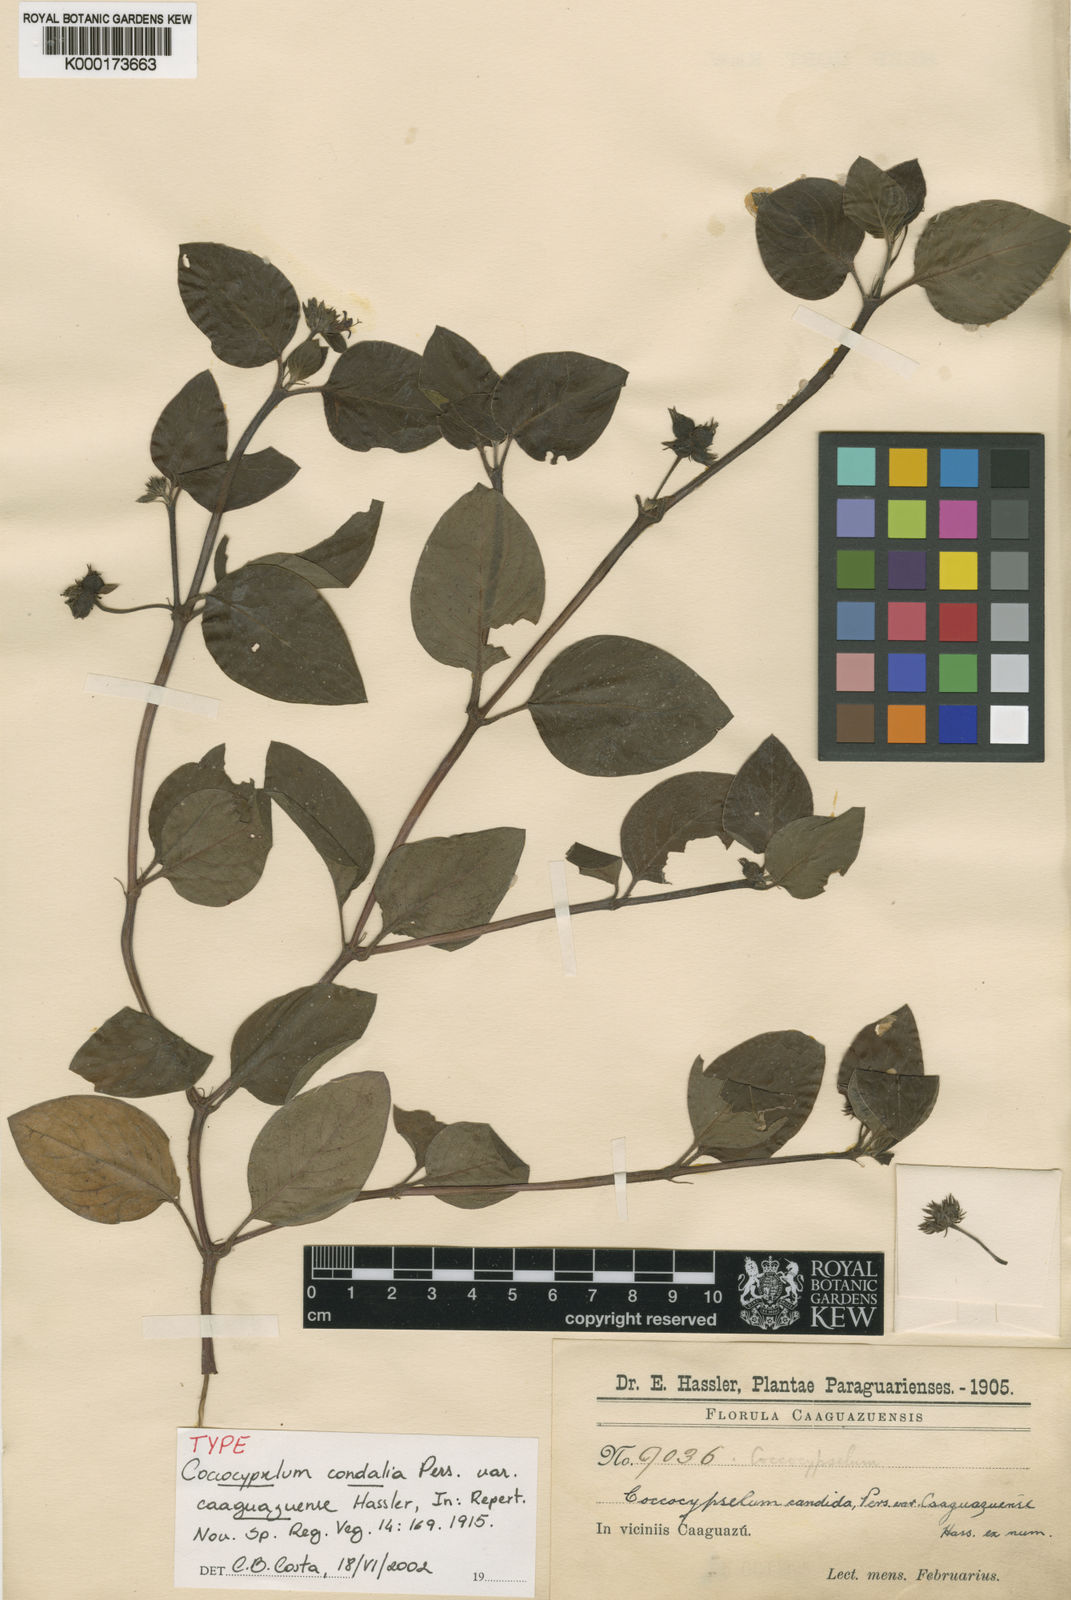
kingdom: Plantae
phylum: Tracheophyta
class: Magnoliopsida
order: Gentianales
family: Rubiaceae
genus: Coccocypselum
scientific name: Coccocypselum condalia
